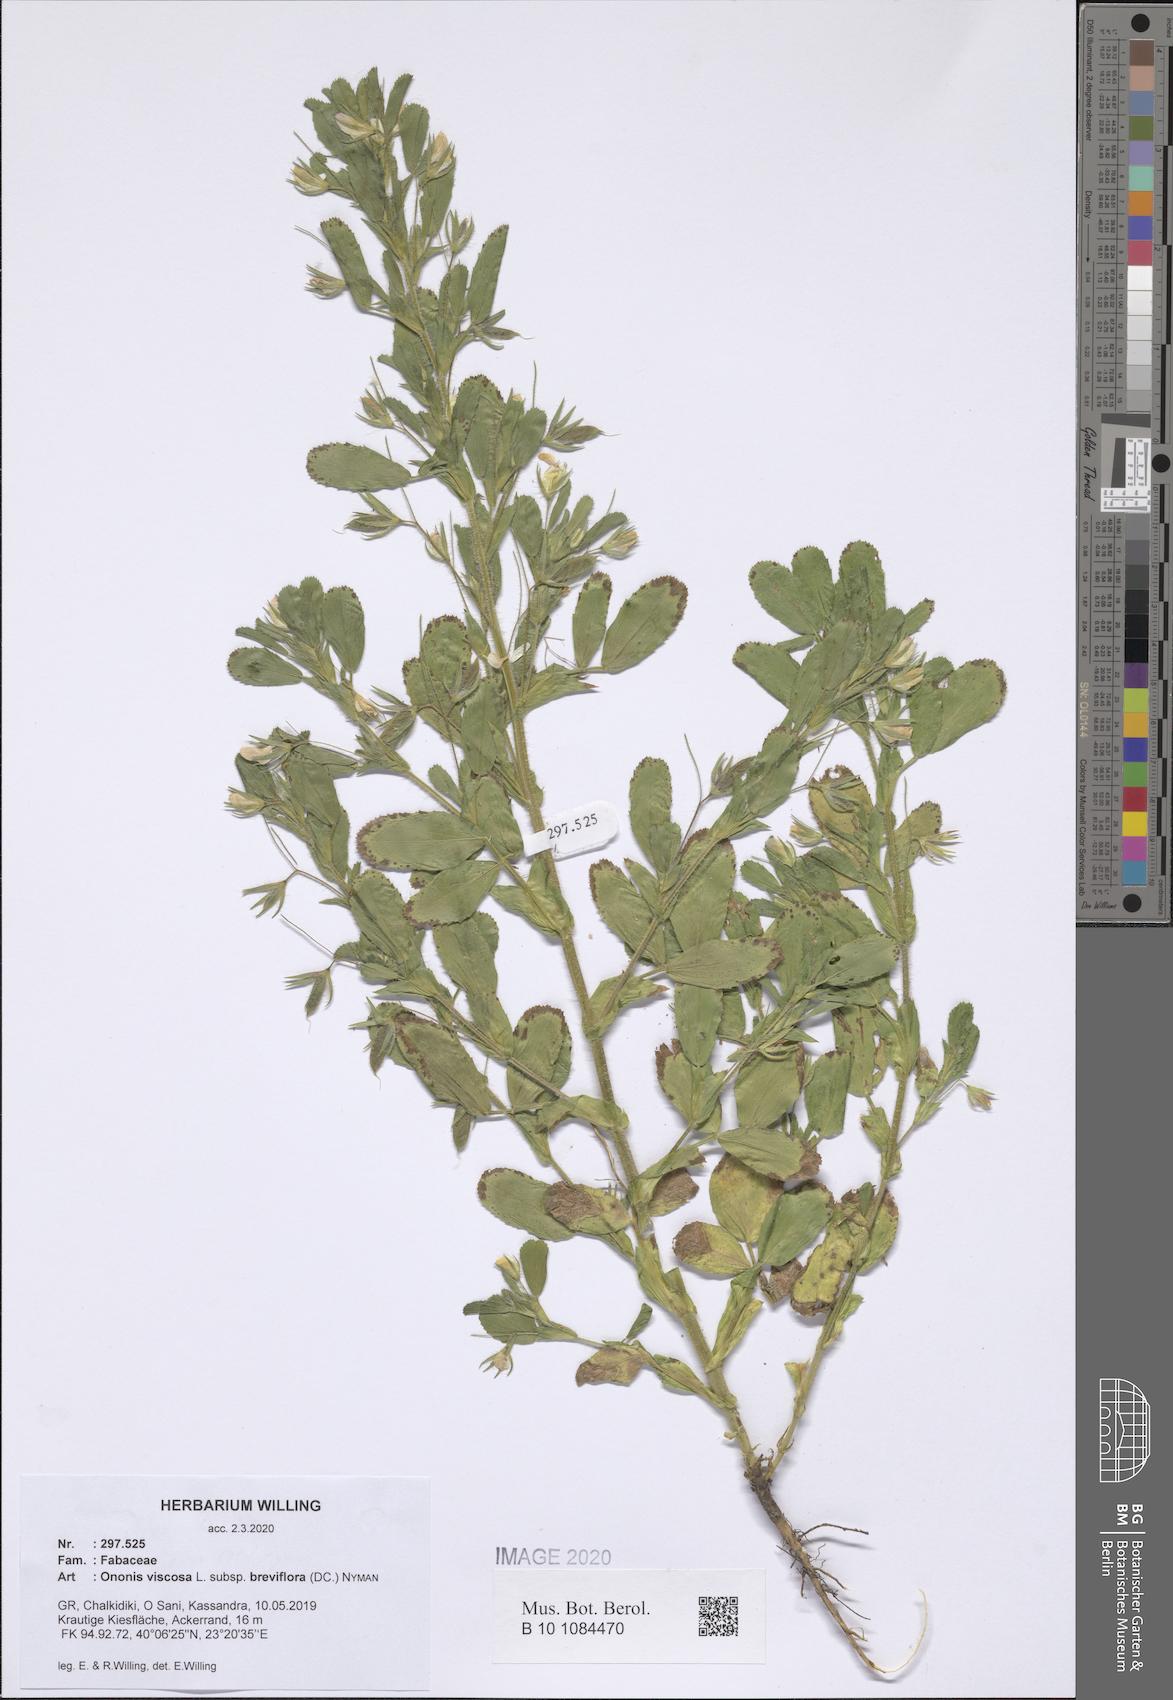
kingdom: Plantae
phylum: Tracheophyta
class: Magnoliopsida
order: Fabales
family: Fabaceae
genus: Ononis
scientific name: Ononis viscosa
